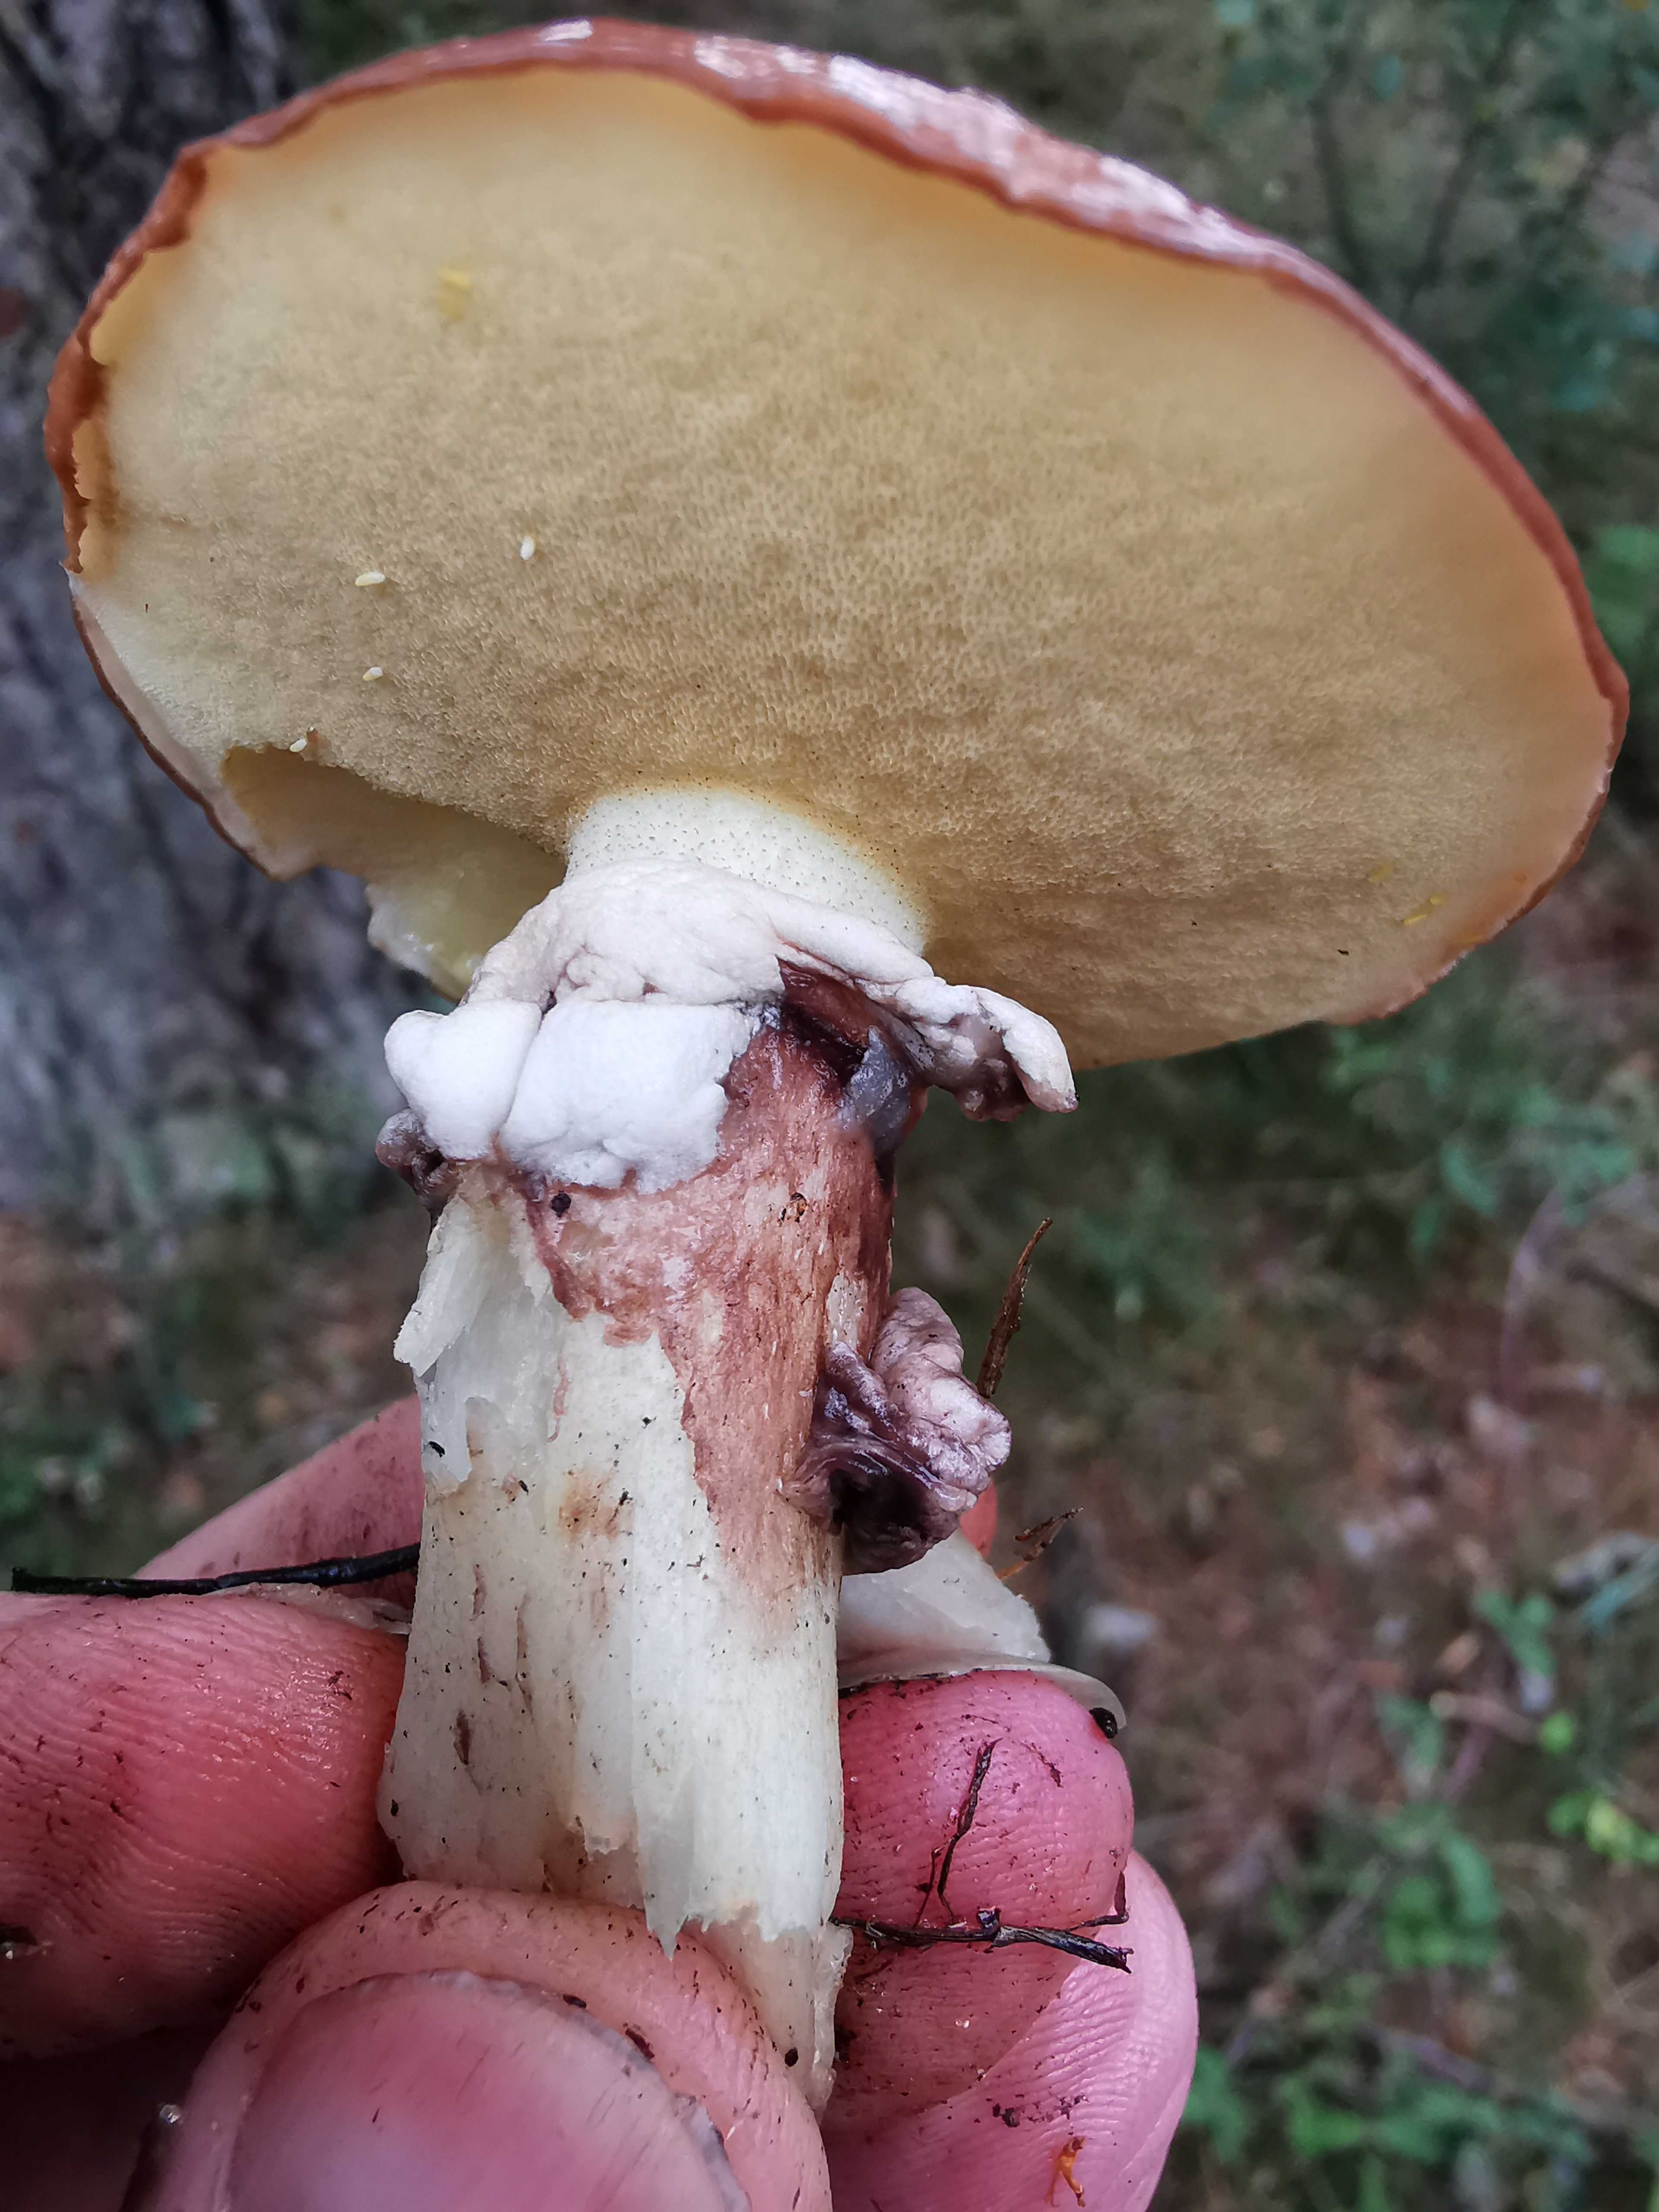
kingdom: Fungi
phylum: Basidiomycota
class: Agaricomycetes
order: Boletales
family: Suillaceae
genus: Suillus
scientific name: Suillus luteus
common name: brungul slimrørhat
